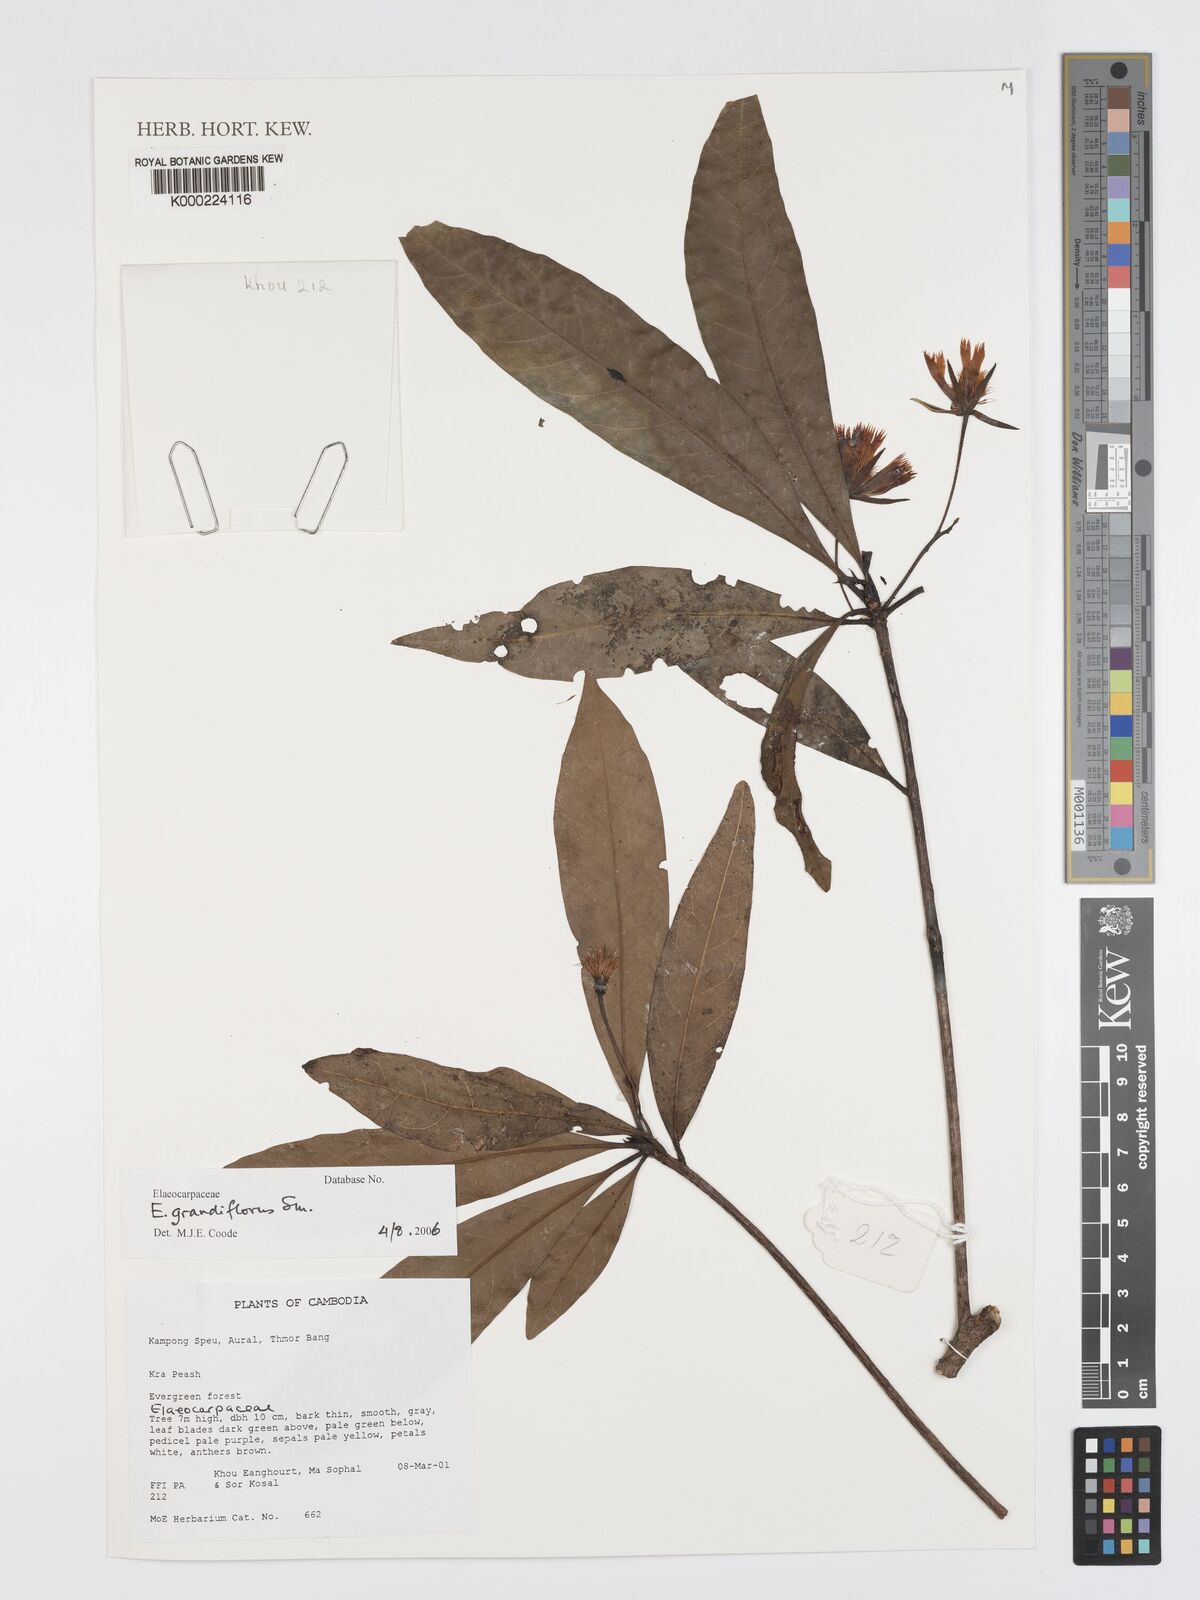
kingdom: Plantae
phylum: Tracheophyta
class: Magnoliopsida
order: Oxalidales
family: Elaeocarpaceae
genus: Elaeocarpus
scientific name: Elaeocarpus grandiflorus
